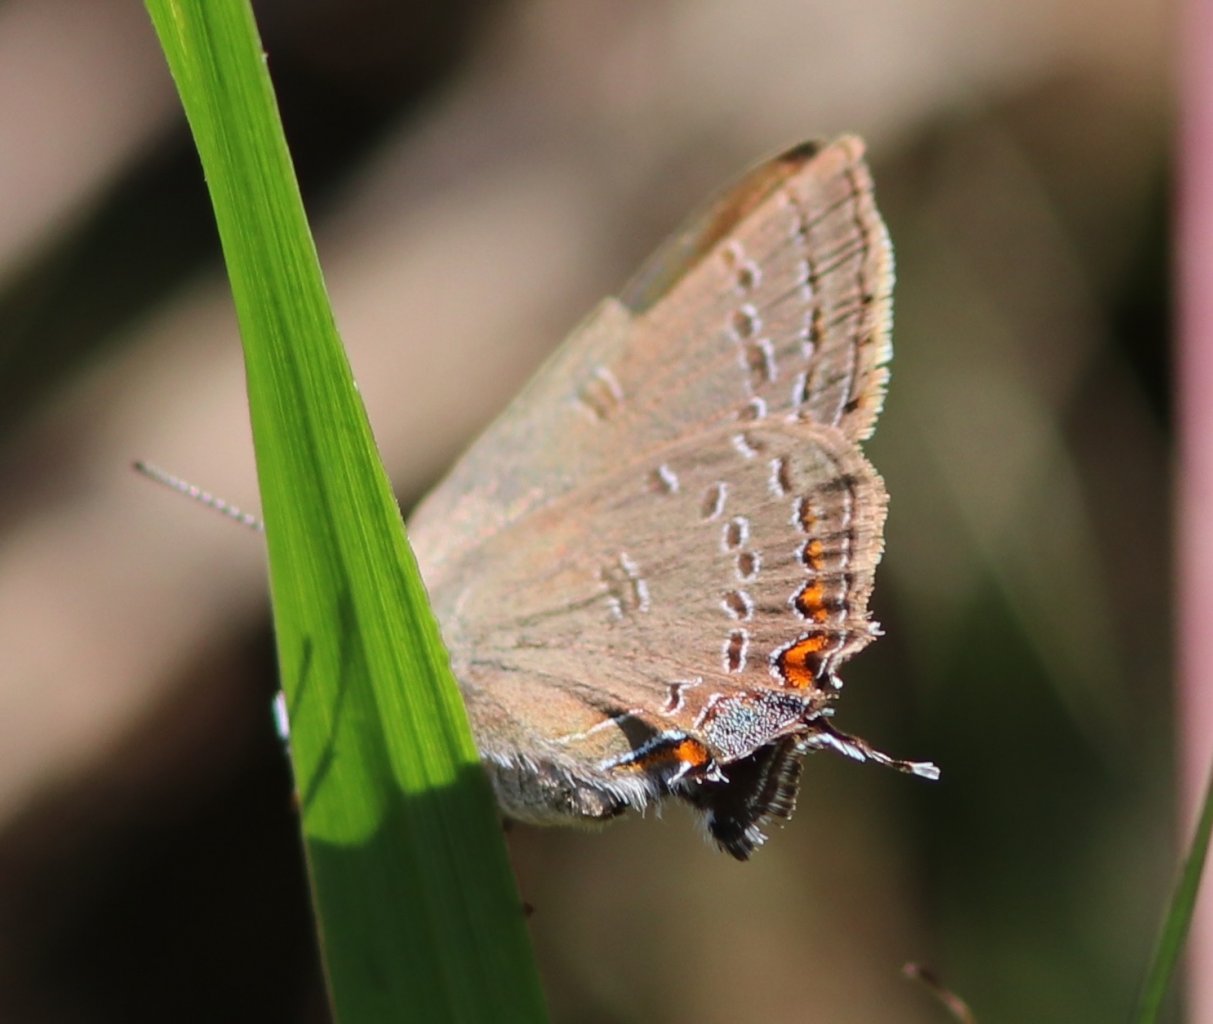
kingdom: Animalia
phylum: Arthropoda
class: Insecta
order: Lepidoptera
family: Lycaenidae
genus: Satyrium
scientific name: Satyrium edwardsii
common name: Edwards' Hairstreak
